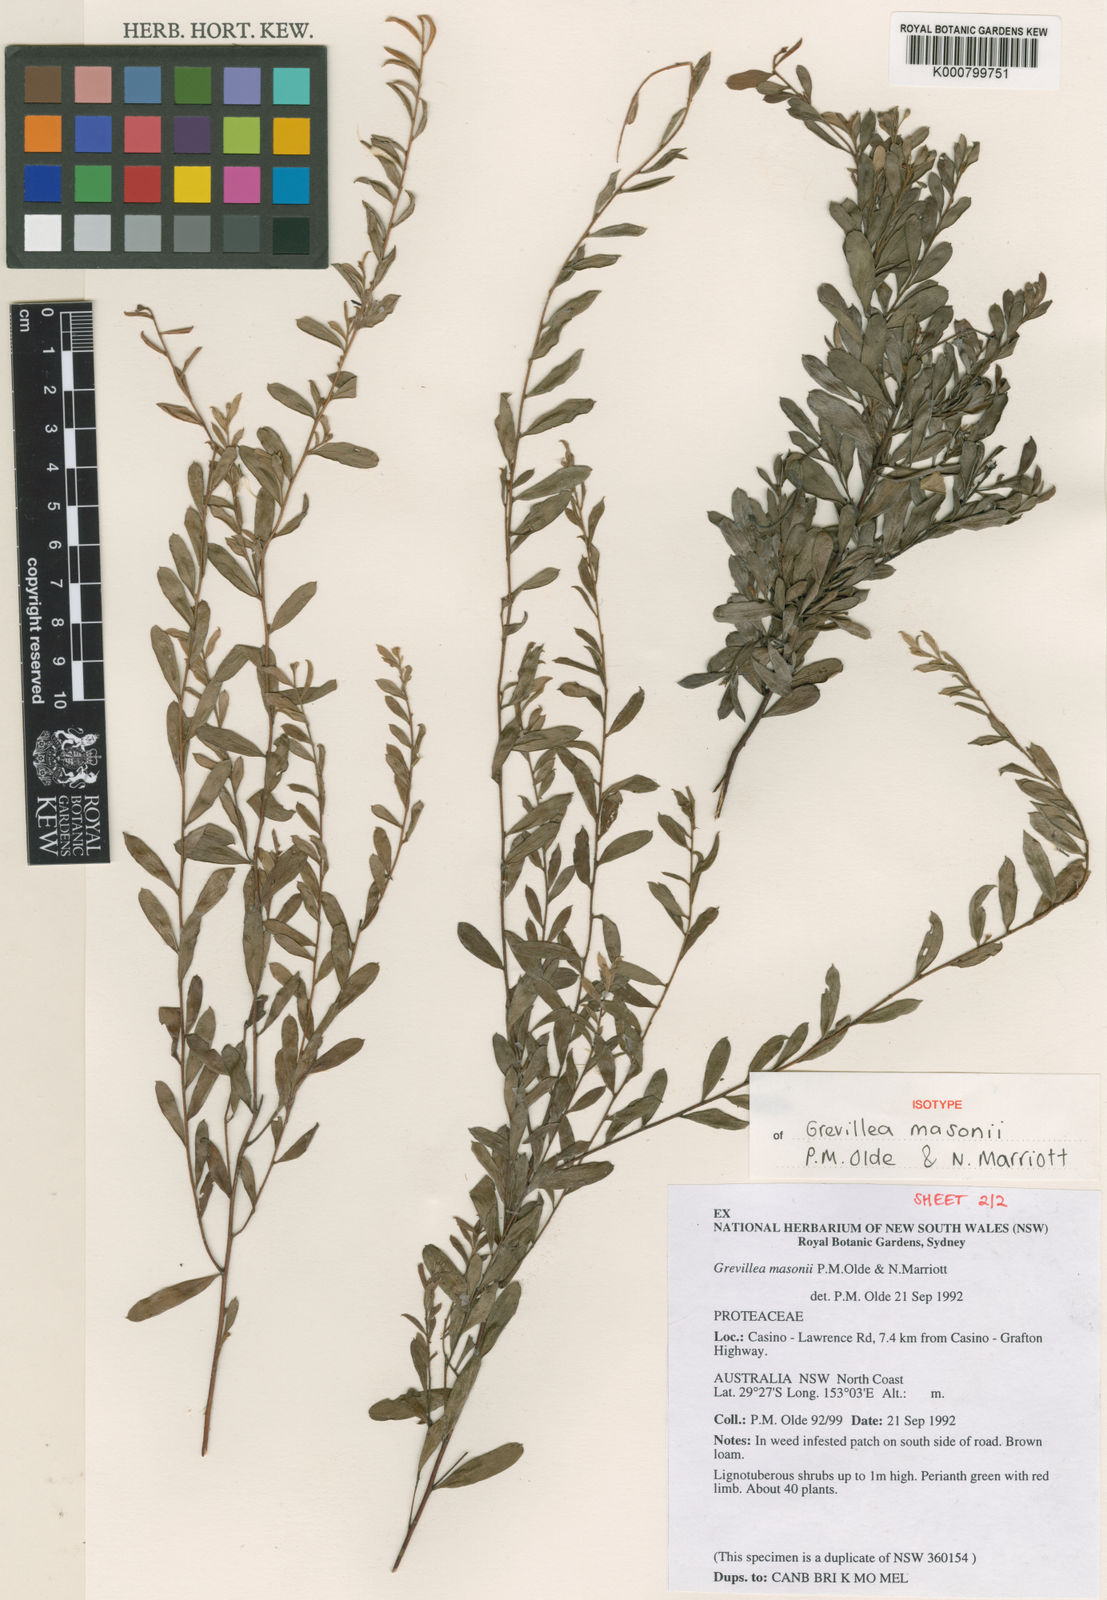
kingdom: Plantae
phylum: Tracheophyta
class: Magnoliopsida
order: Proteales
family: Proteaceae
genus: Grevillea
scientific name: Grevillea masonii
